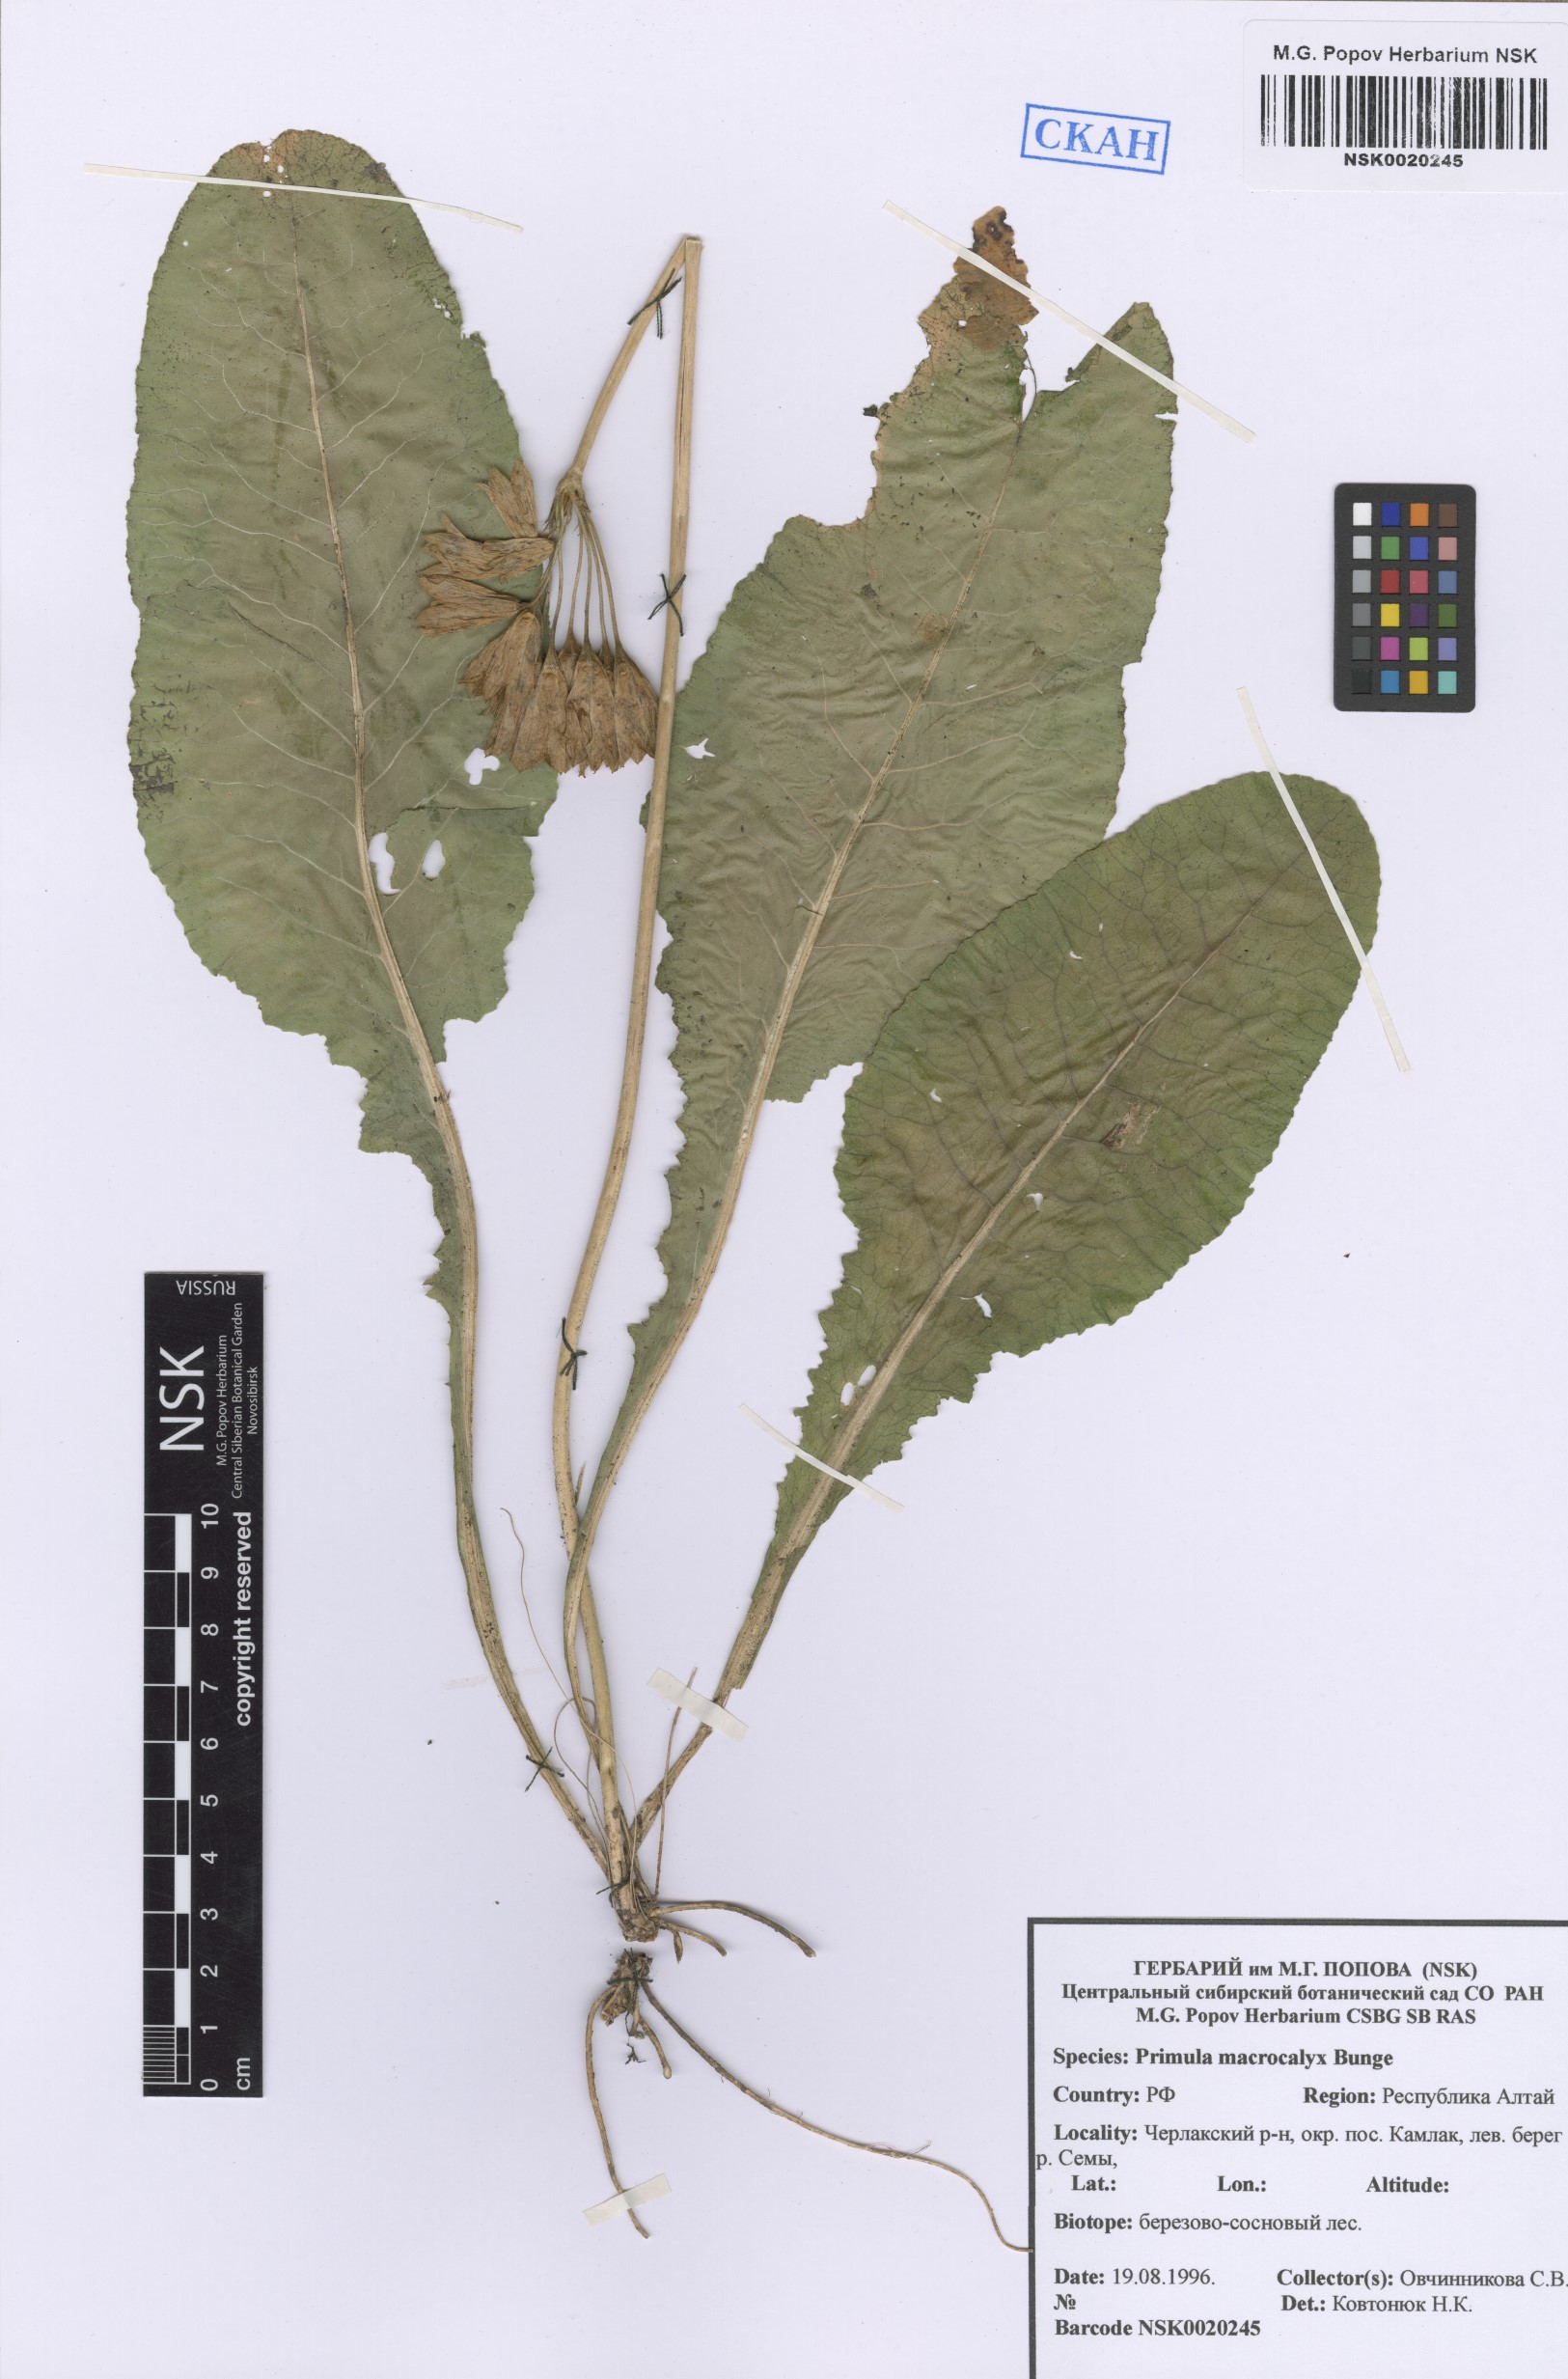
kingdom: Plantae
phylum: Tracheophyta
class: Magnoliopsida
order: Ericales
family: Primulaceae
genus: Primula
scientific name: Primula veris
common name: Cowslip
